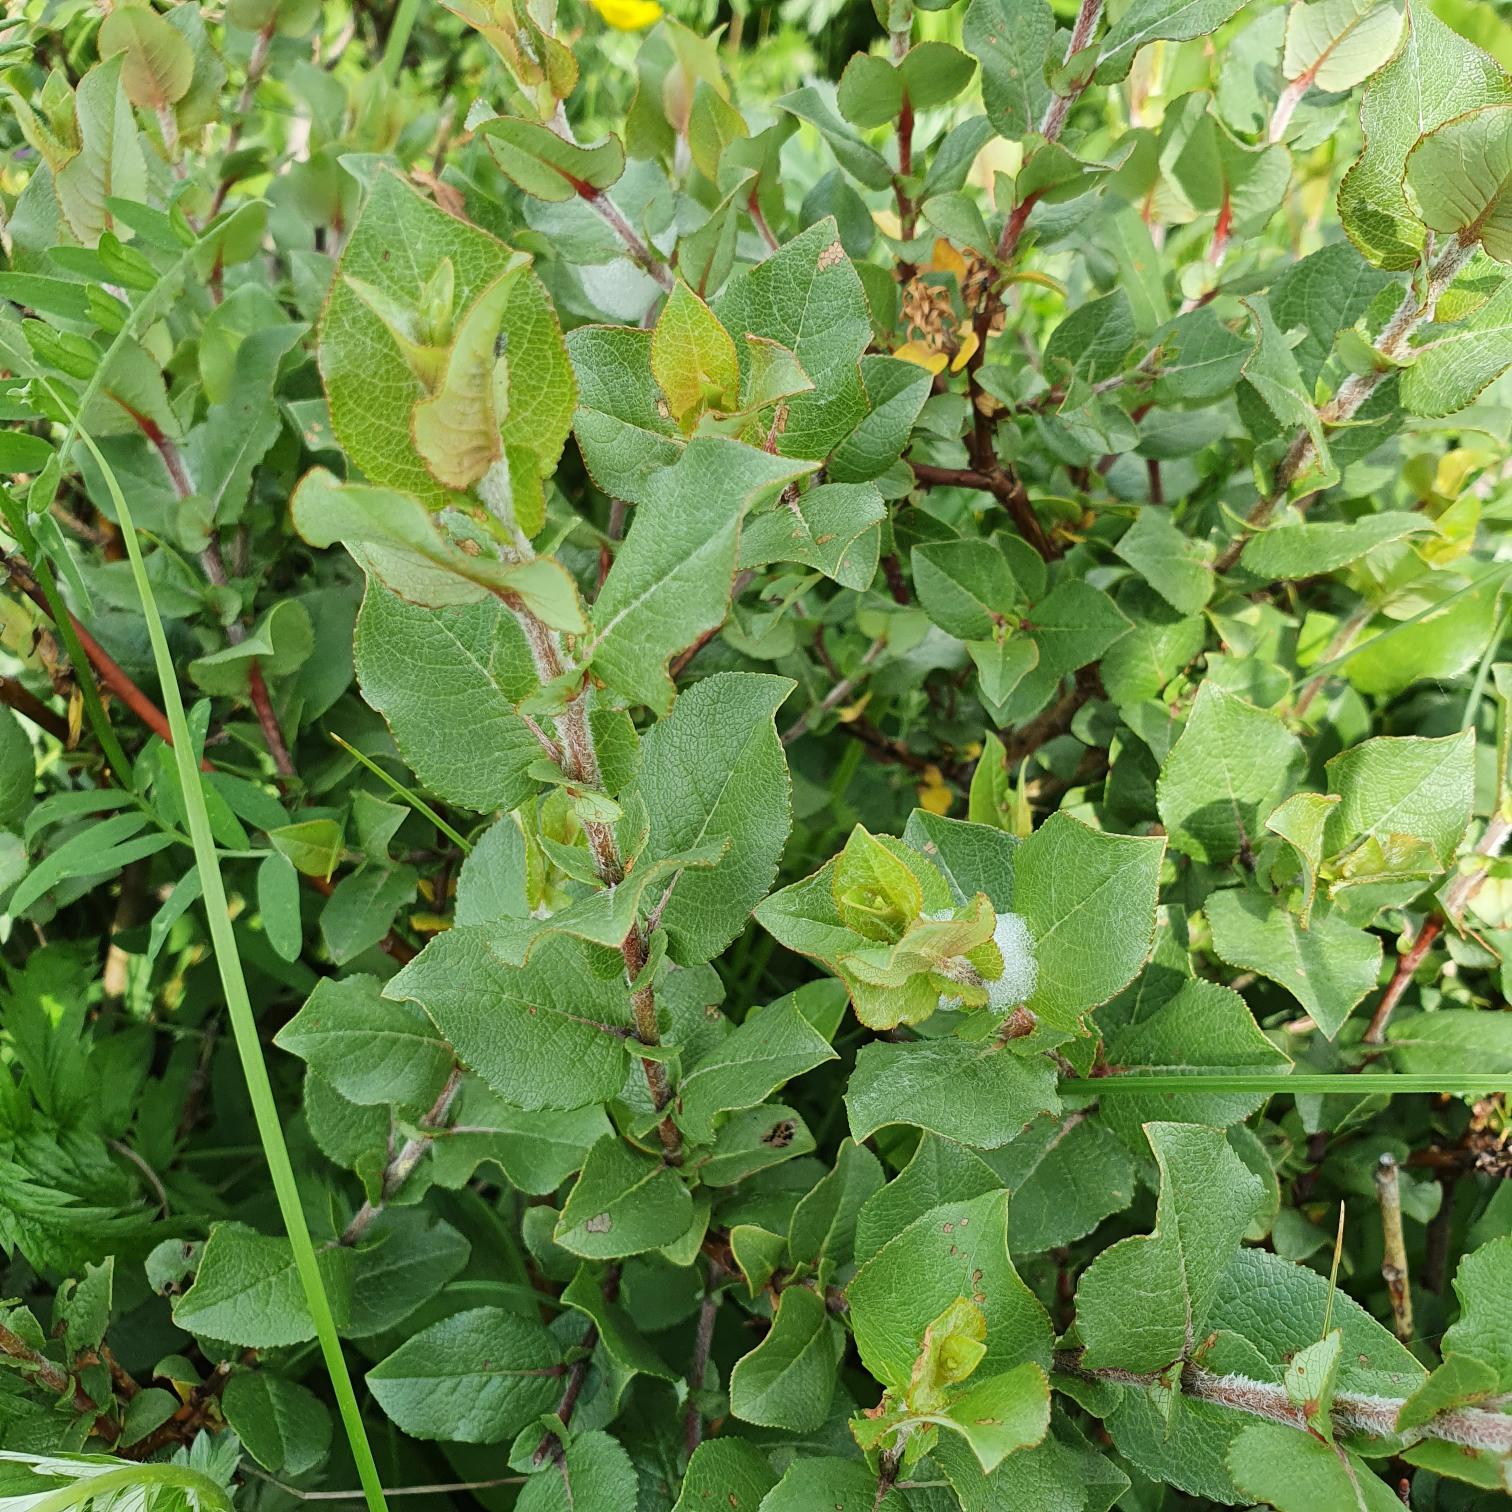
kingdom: Plantae
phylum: Tracheophyta
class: Magnoliopsida
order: Malpighiales
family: Salicaceae
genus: Salix
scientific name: Salix hastata
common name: Spyd-pil
